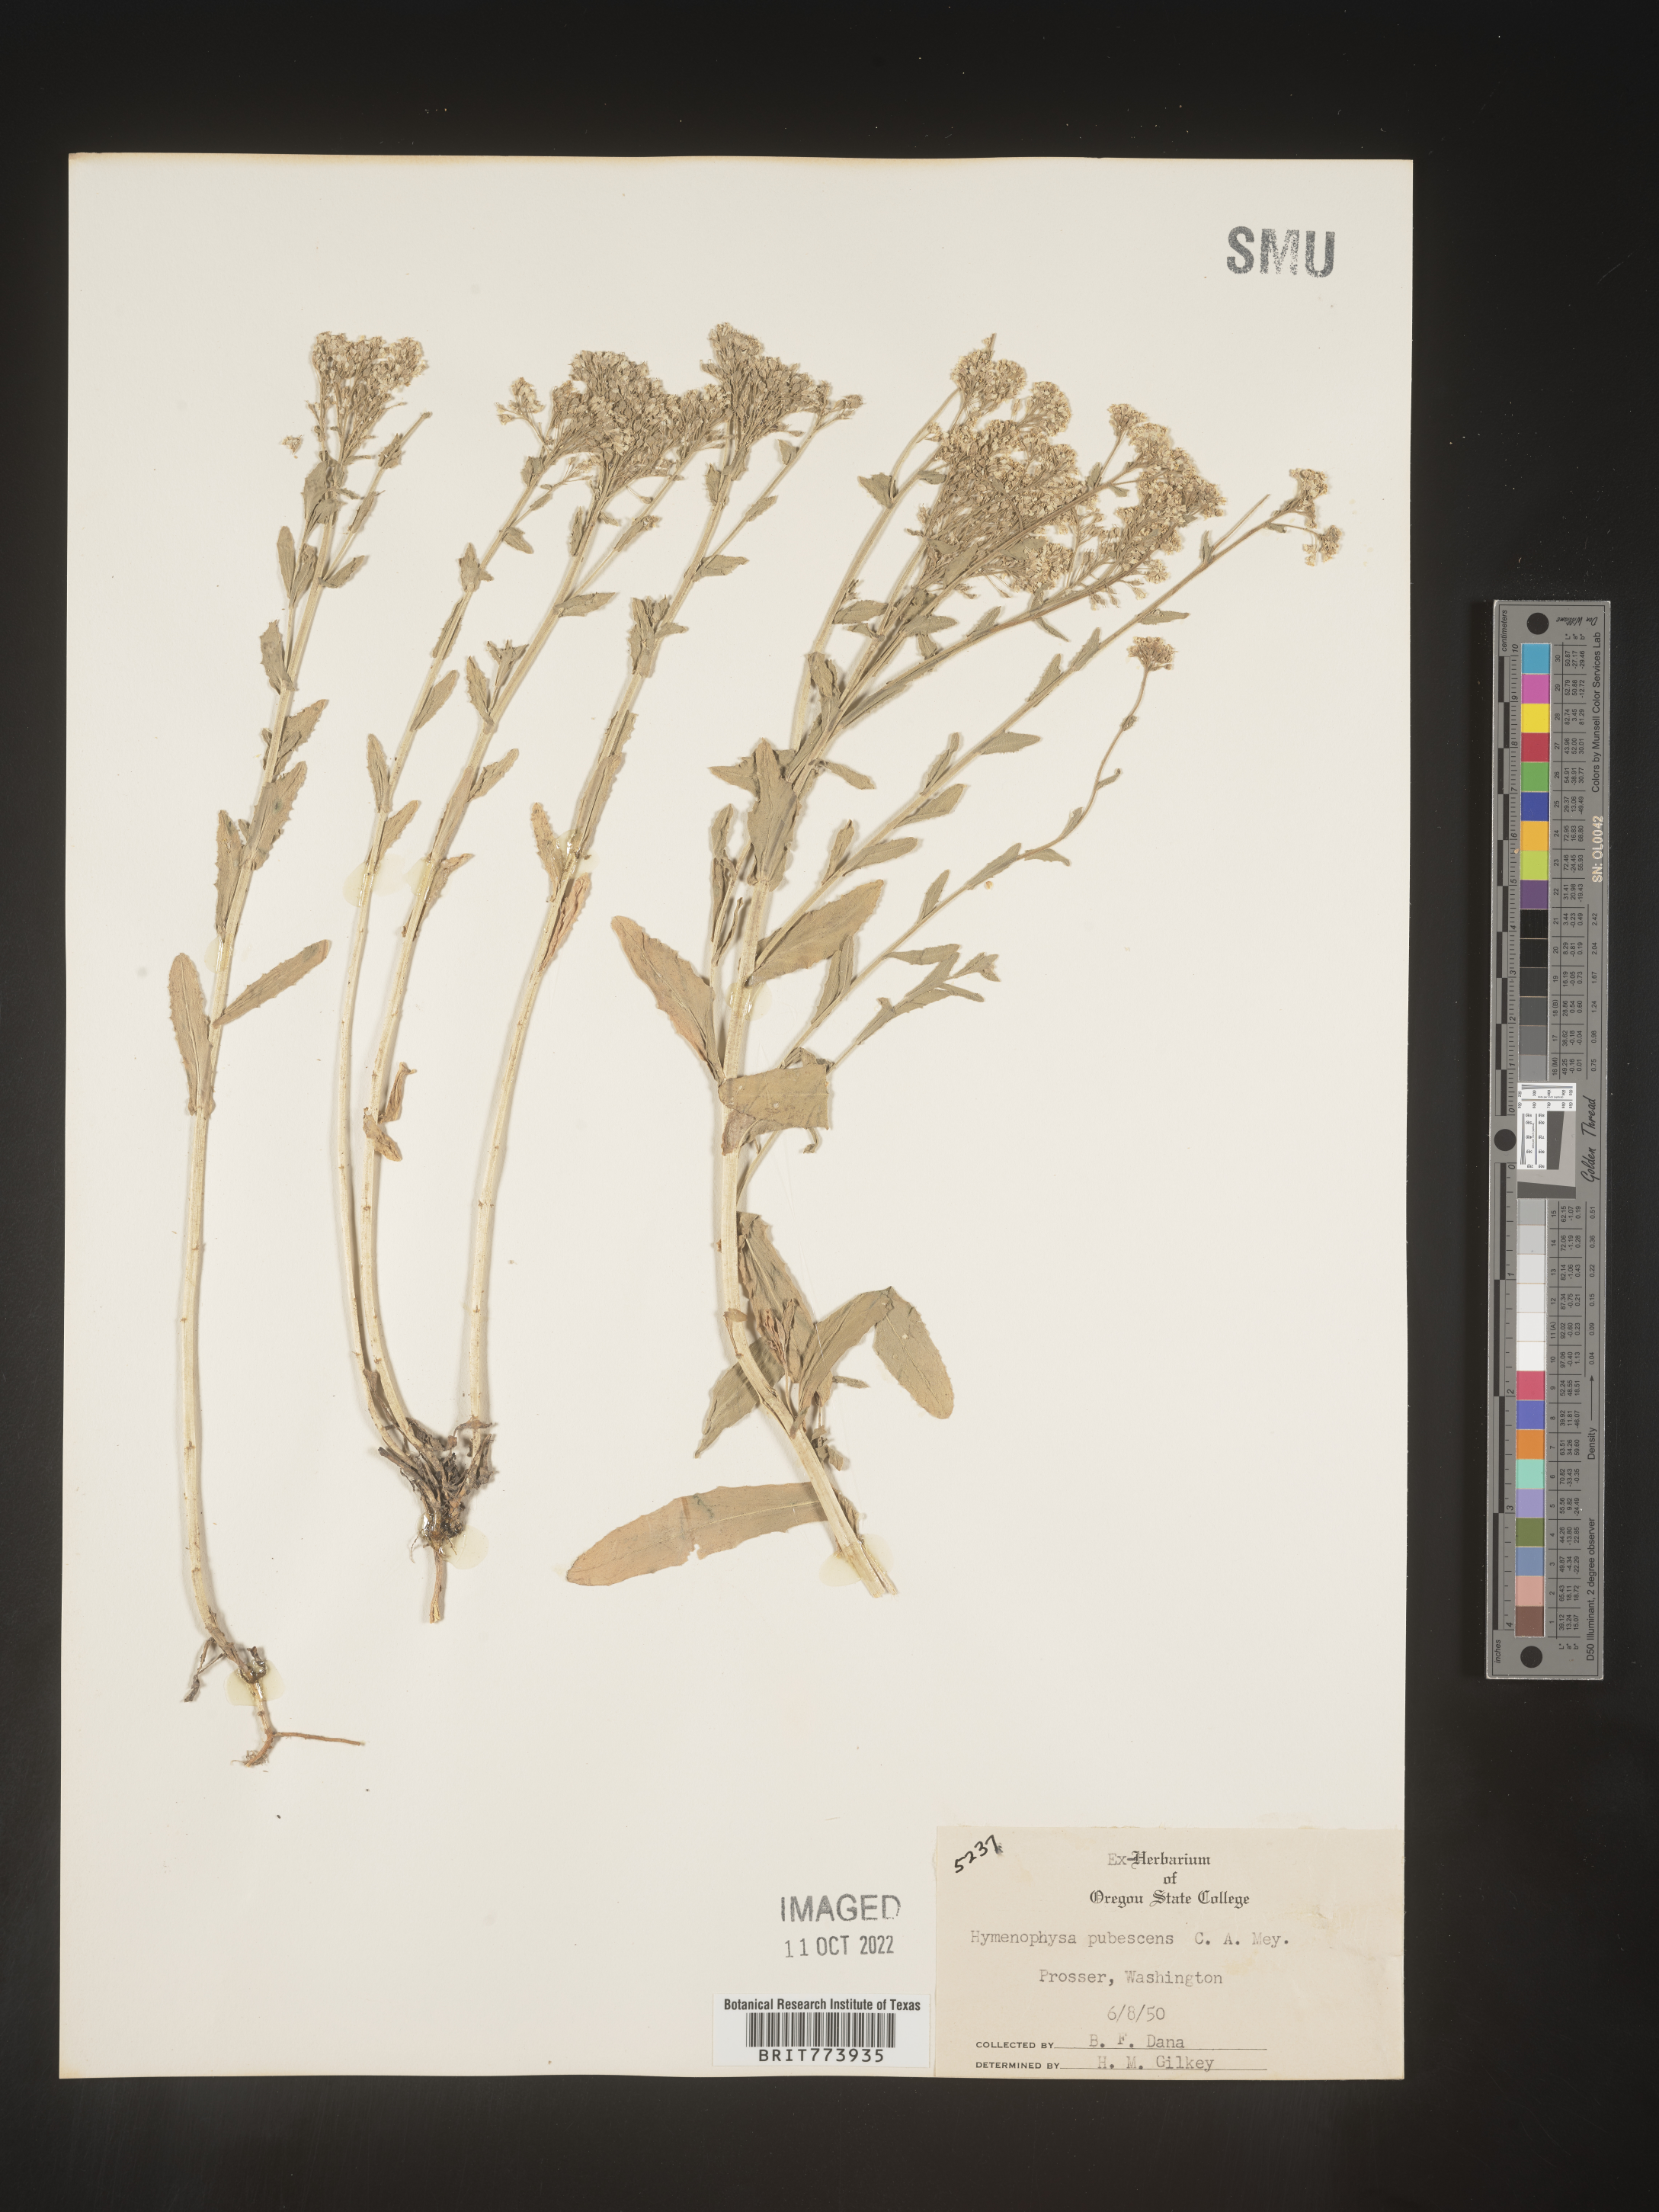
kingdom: Plantae
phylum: Tracheophyta
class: Magnoliopsida
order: Brassicales
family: Brassicaceae
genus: Lepidium
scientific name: Lepidium appelianum
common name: Hairy whitetop
